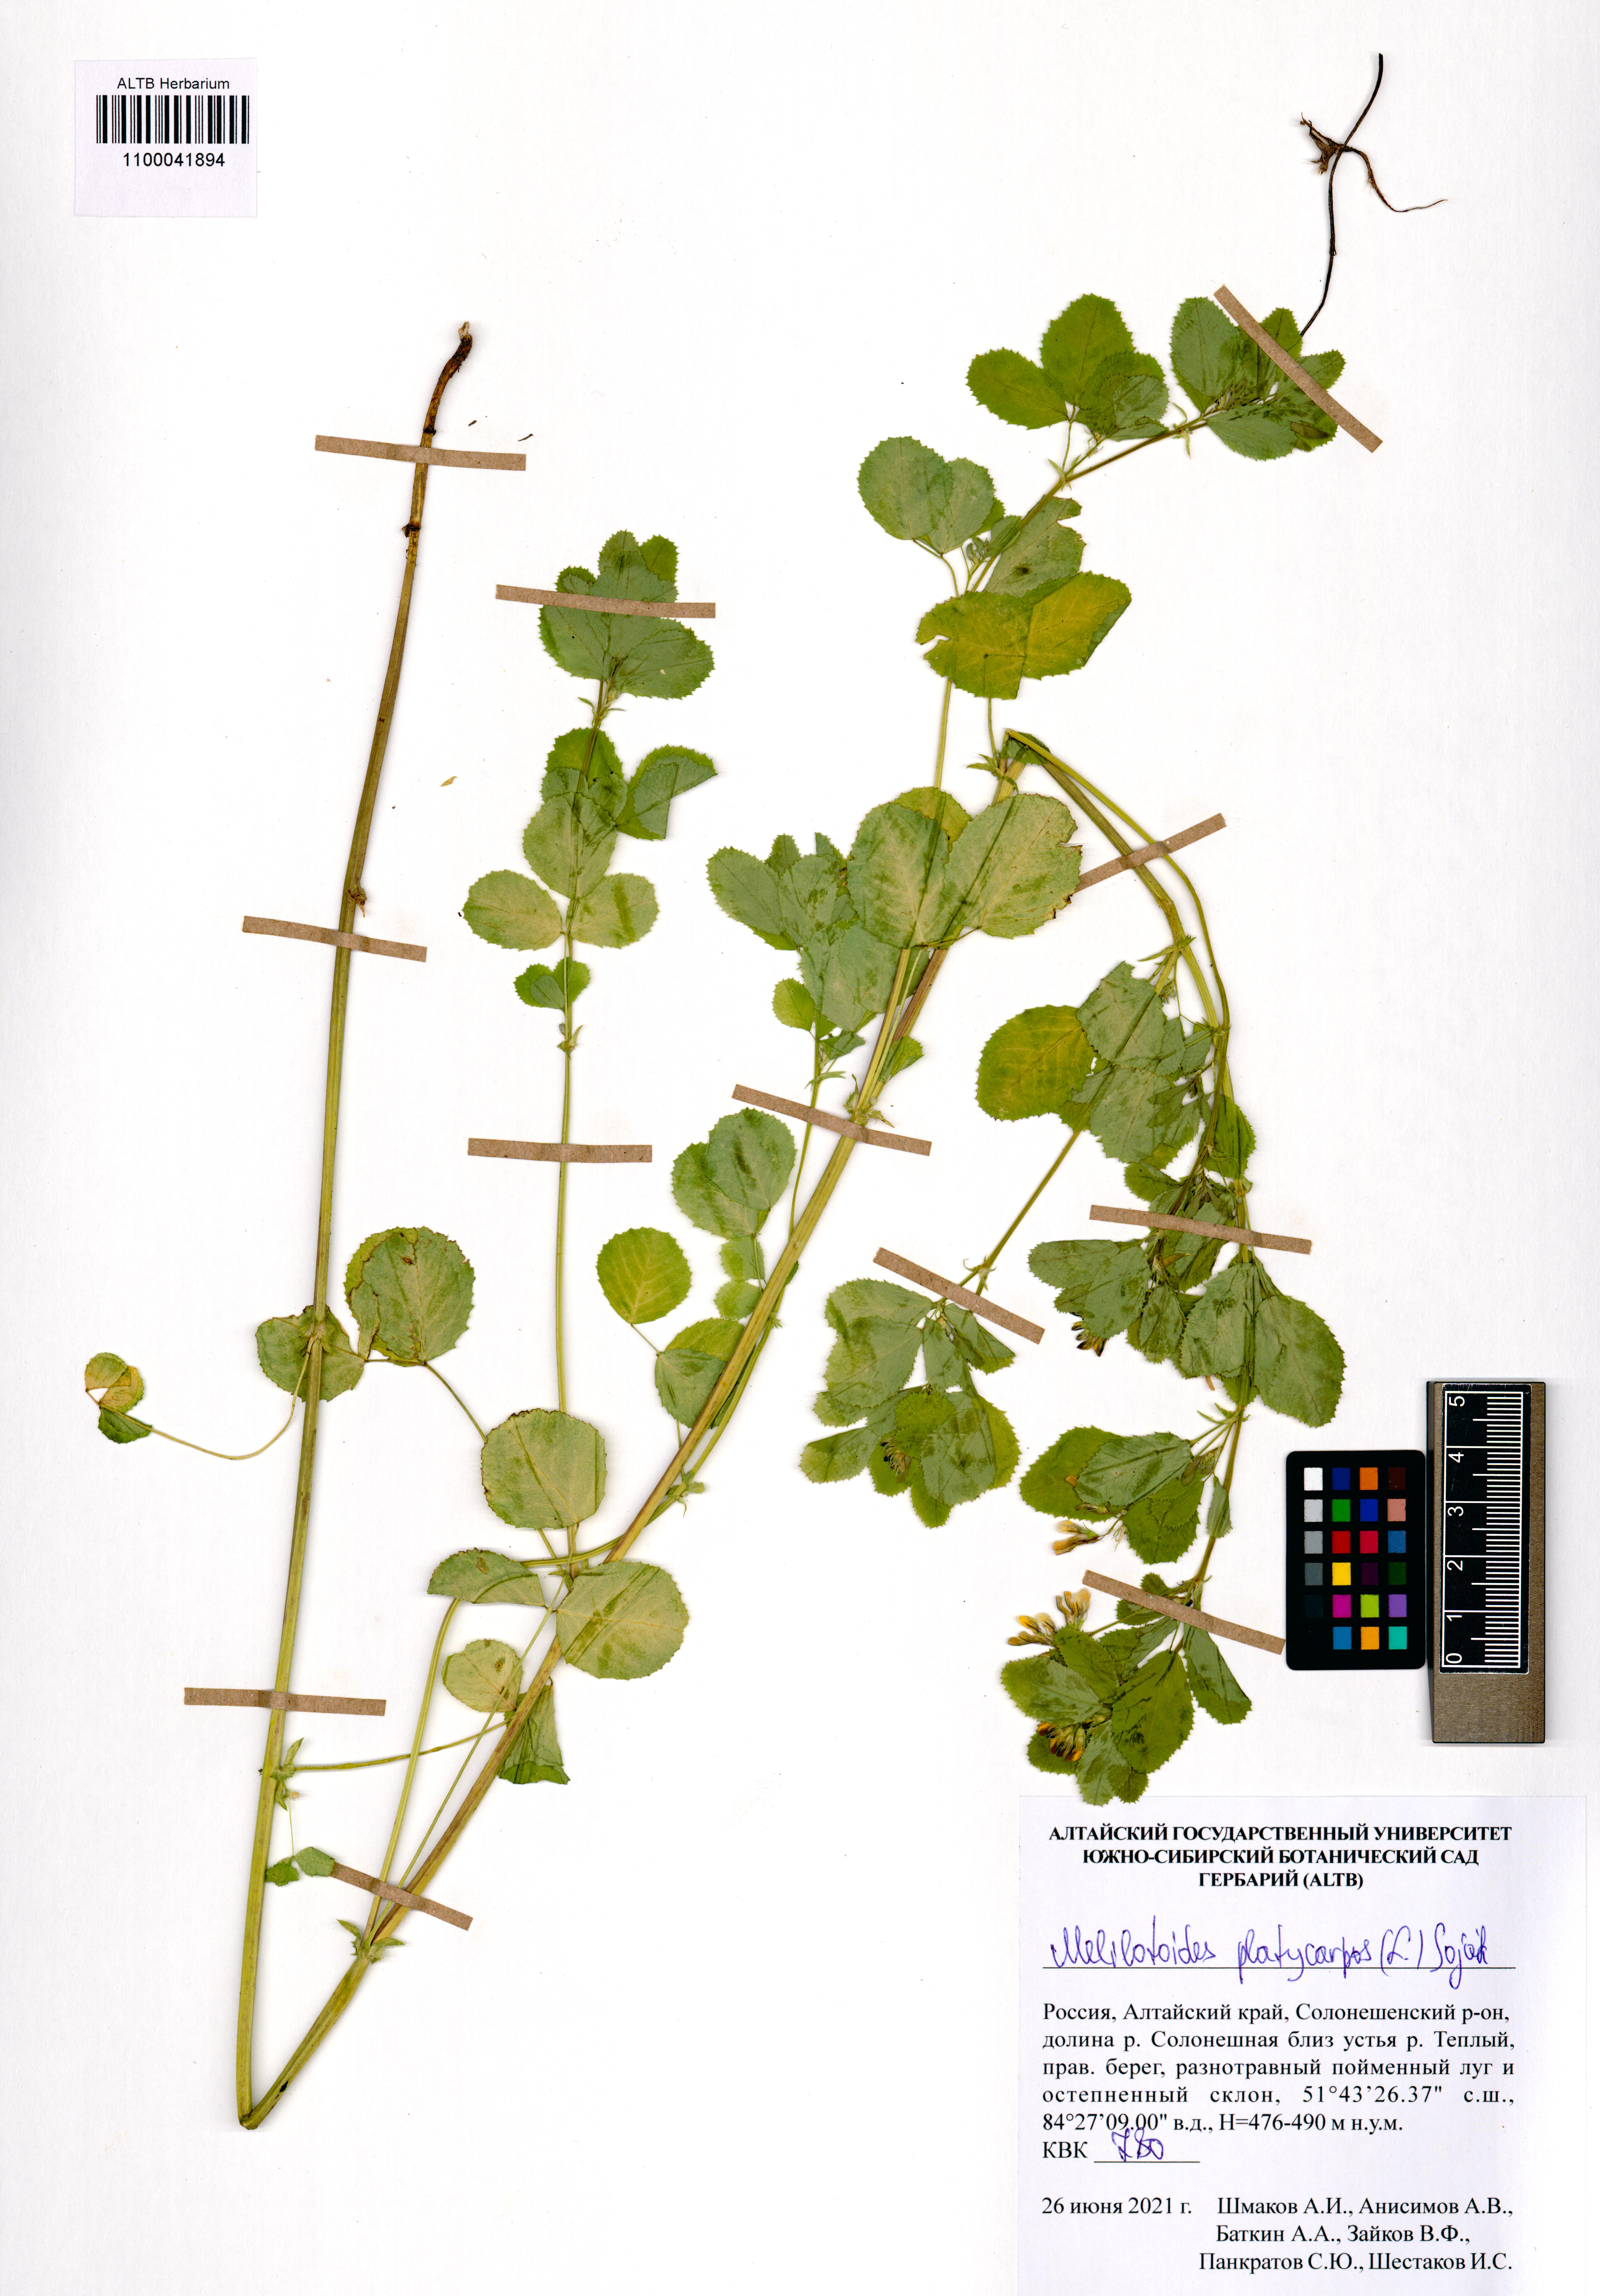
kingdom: Plantae
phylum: Tracheophyta
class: Magnoliopsida
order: Fabales
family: Fabaceae
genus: Medicago
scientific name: Medicago platycarpos
